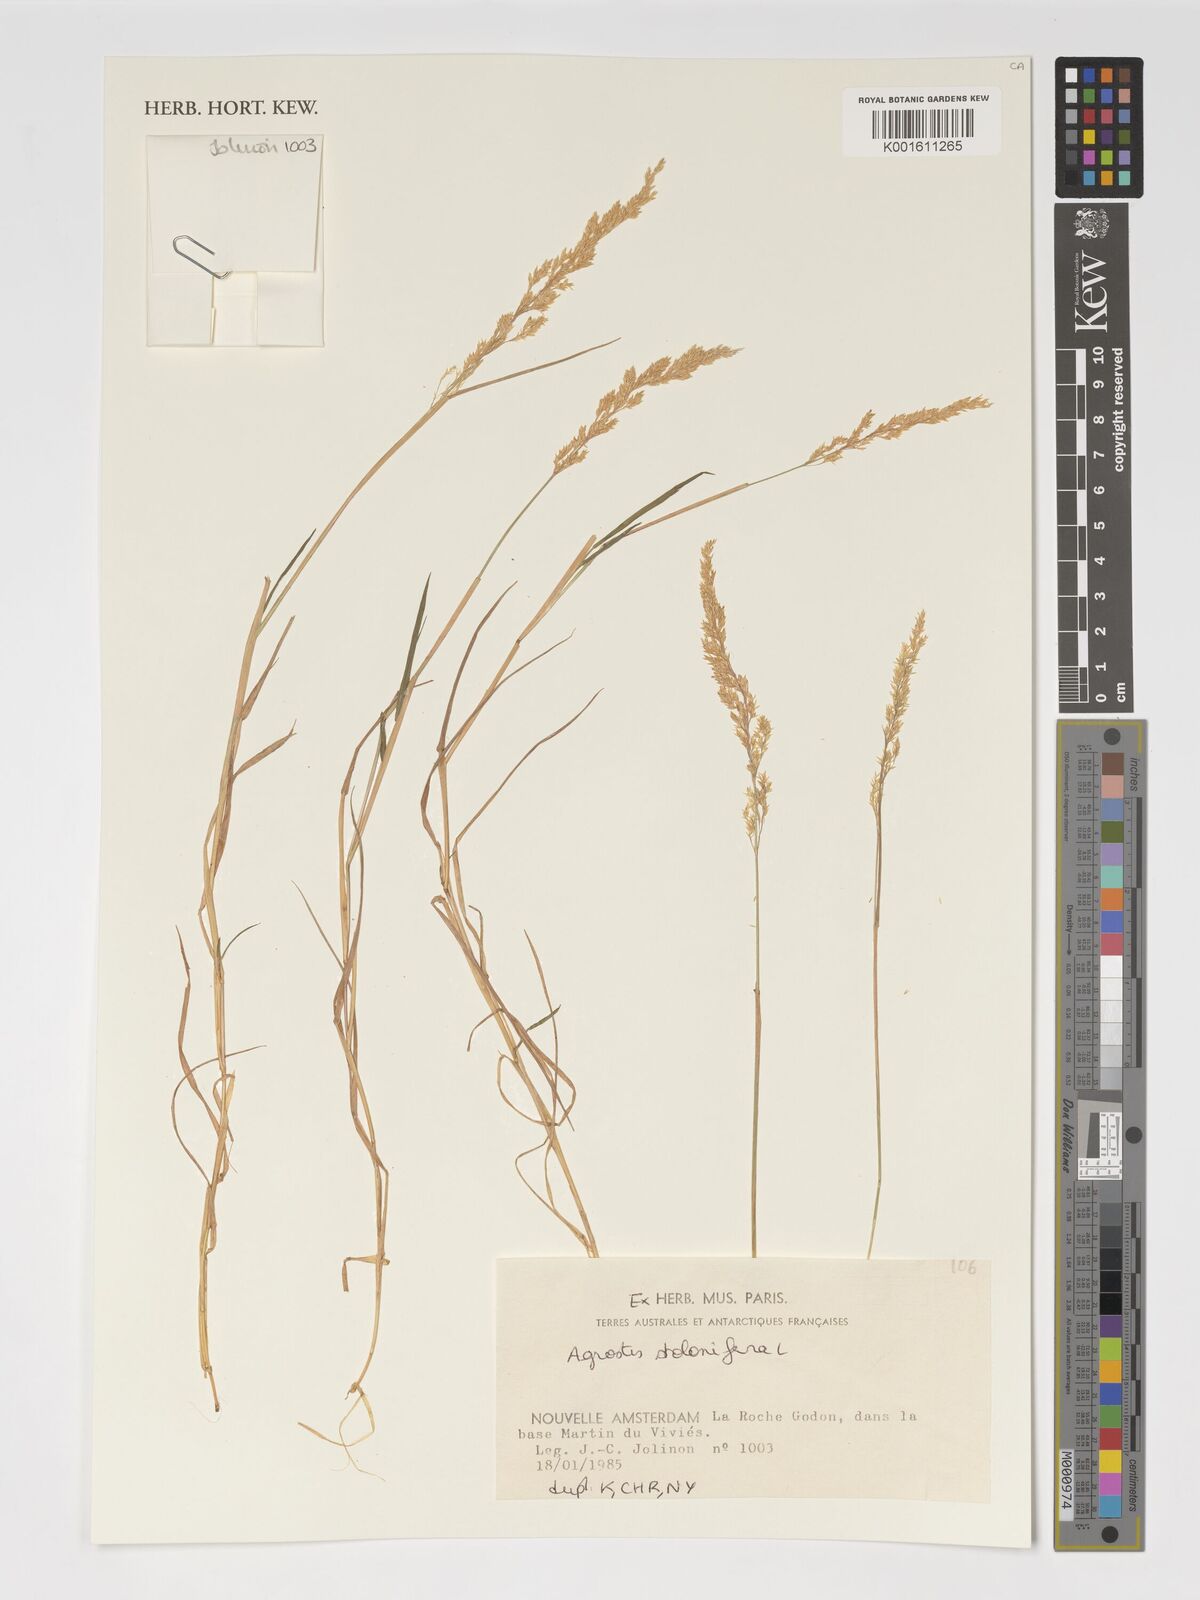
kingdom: Plantae
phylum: Tracheophyta
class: Liliopsida
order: Poales
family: Poaceae
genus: Agrostis
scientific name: Agrostis stolonifera
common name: Creeping bentgrass
